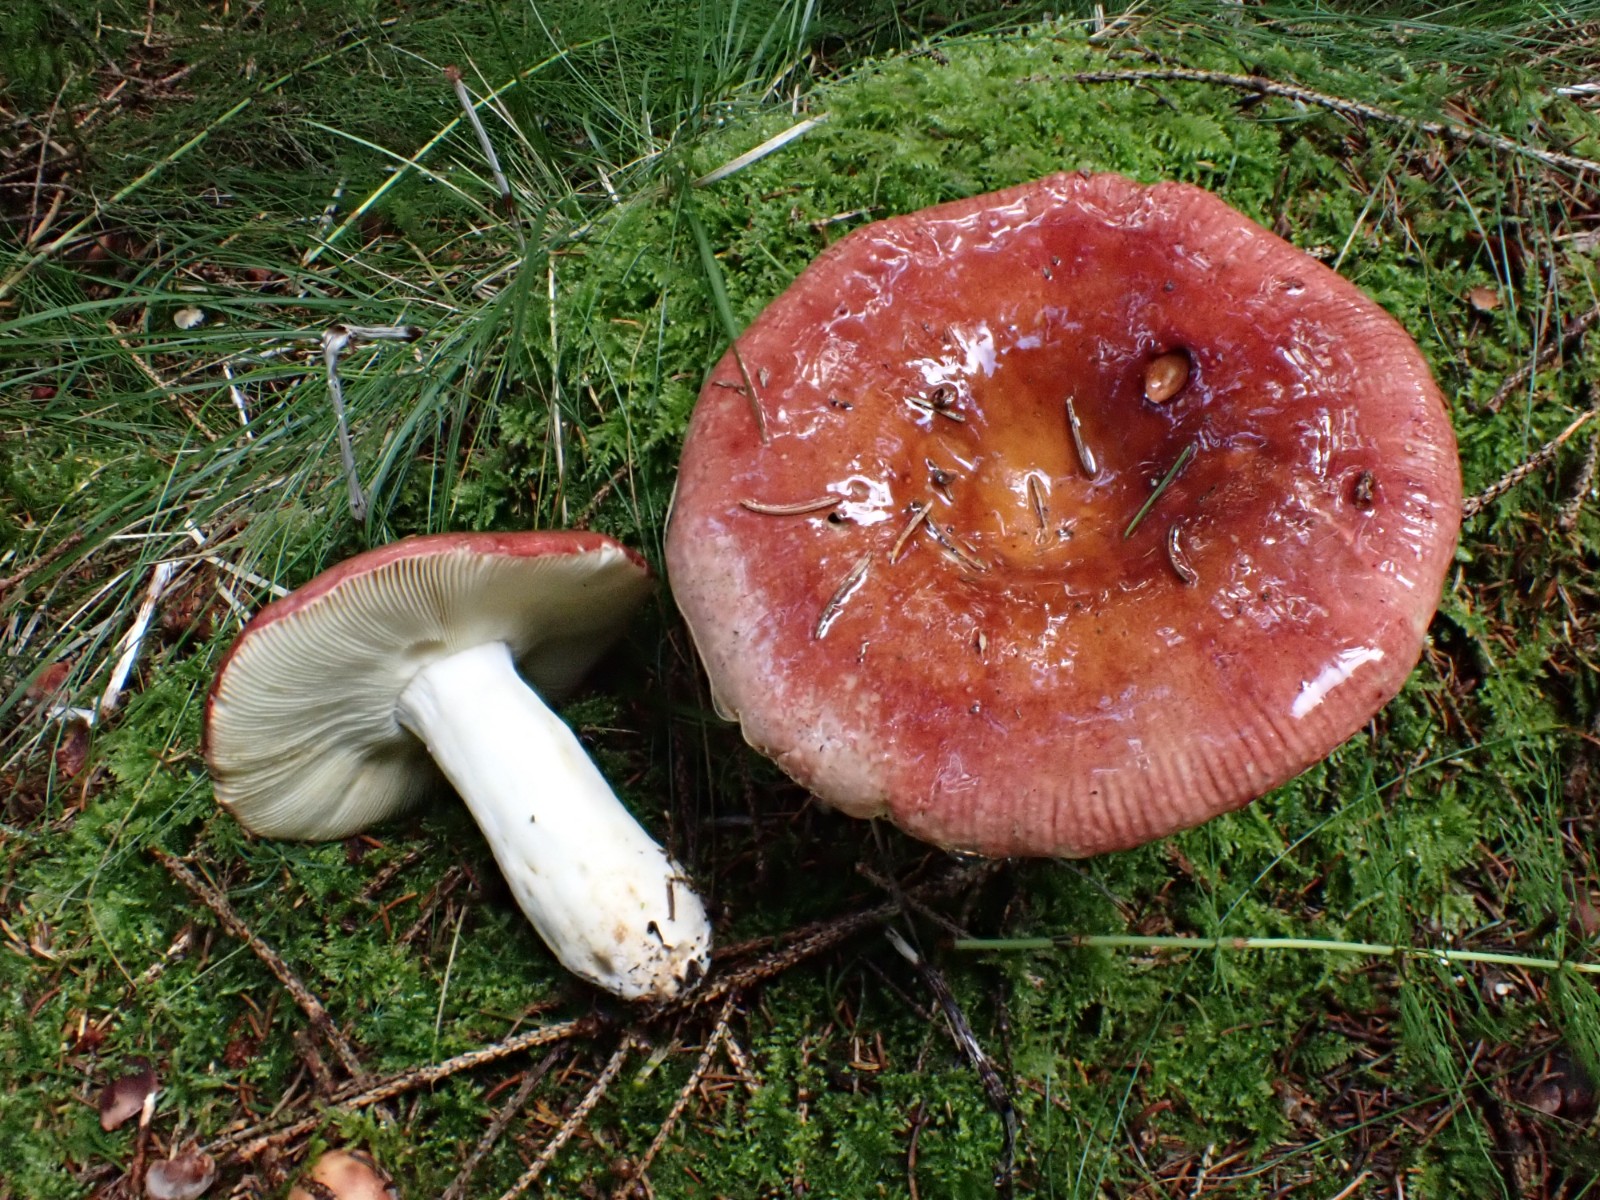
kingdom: Fungi
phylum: Basidiomycota
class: Agaricomycetes
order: Russulales
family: Russulaceae
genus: Russula
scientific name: Russula vinosa
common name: vinrød skørhat
